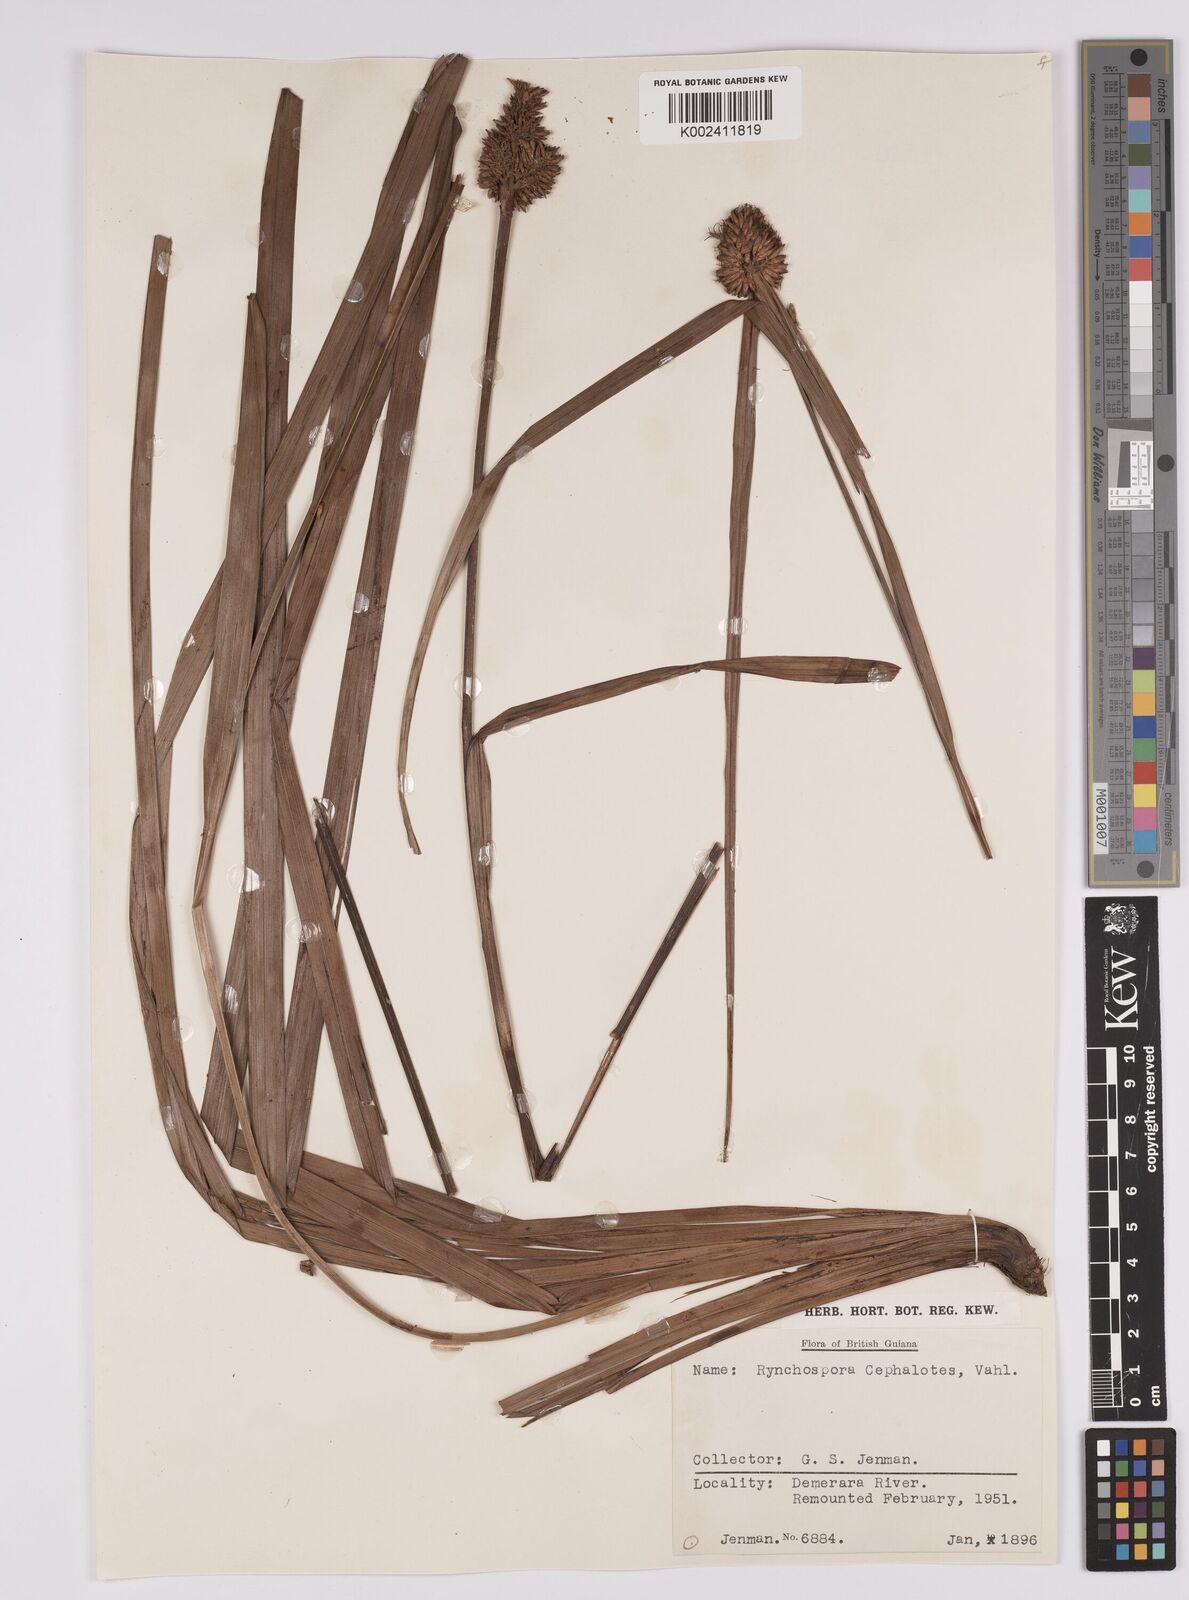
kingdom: Plantae
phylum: Tracheophyta
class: Liliopsida
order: Poales
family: Cyperaceae
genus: Rhynchospora
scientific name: Rhynchospora cephalotes
